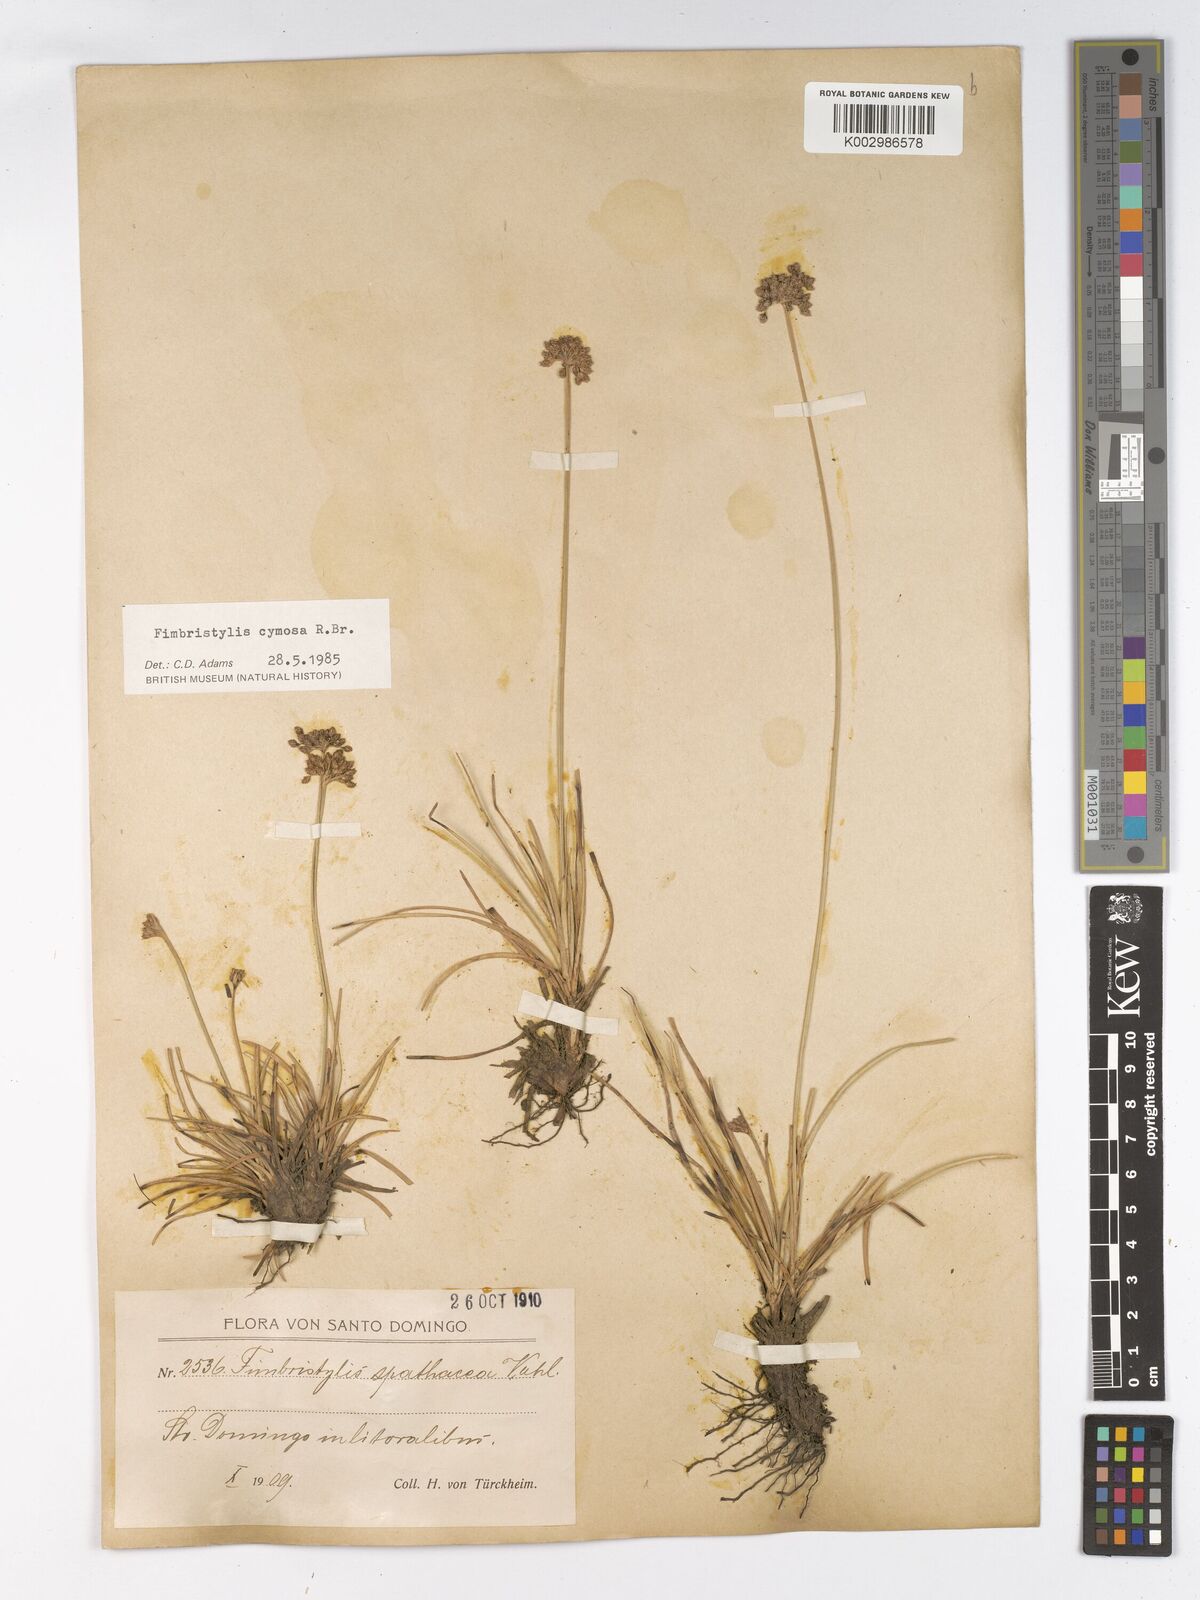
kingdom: Plantae
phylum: Tracheophyta
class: Liliopsida
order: Poales
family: Cyperaceae
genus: Fimbristylis
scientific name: Fimbristylis
